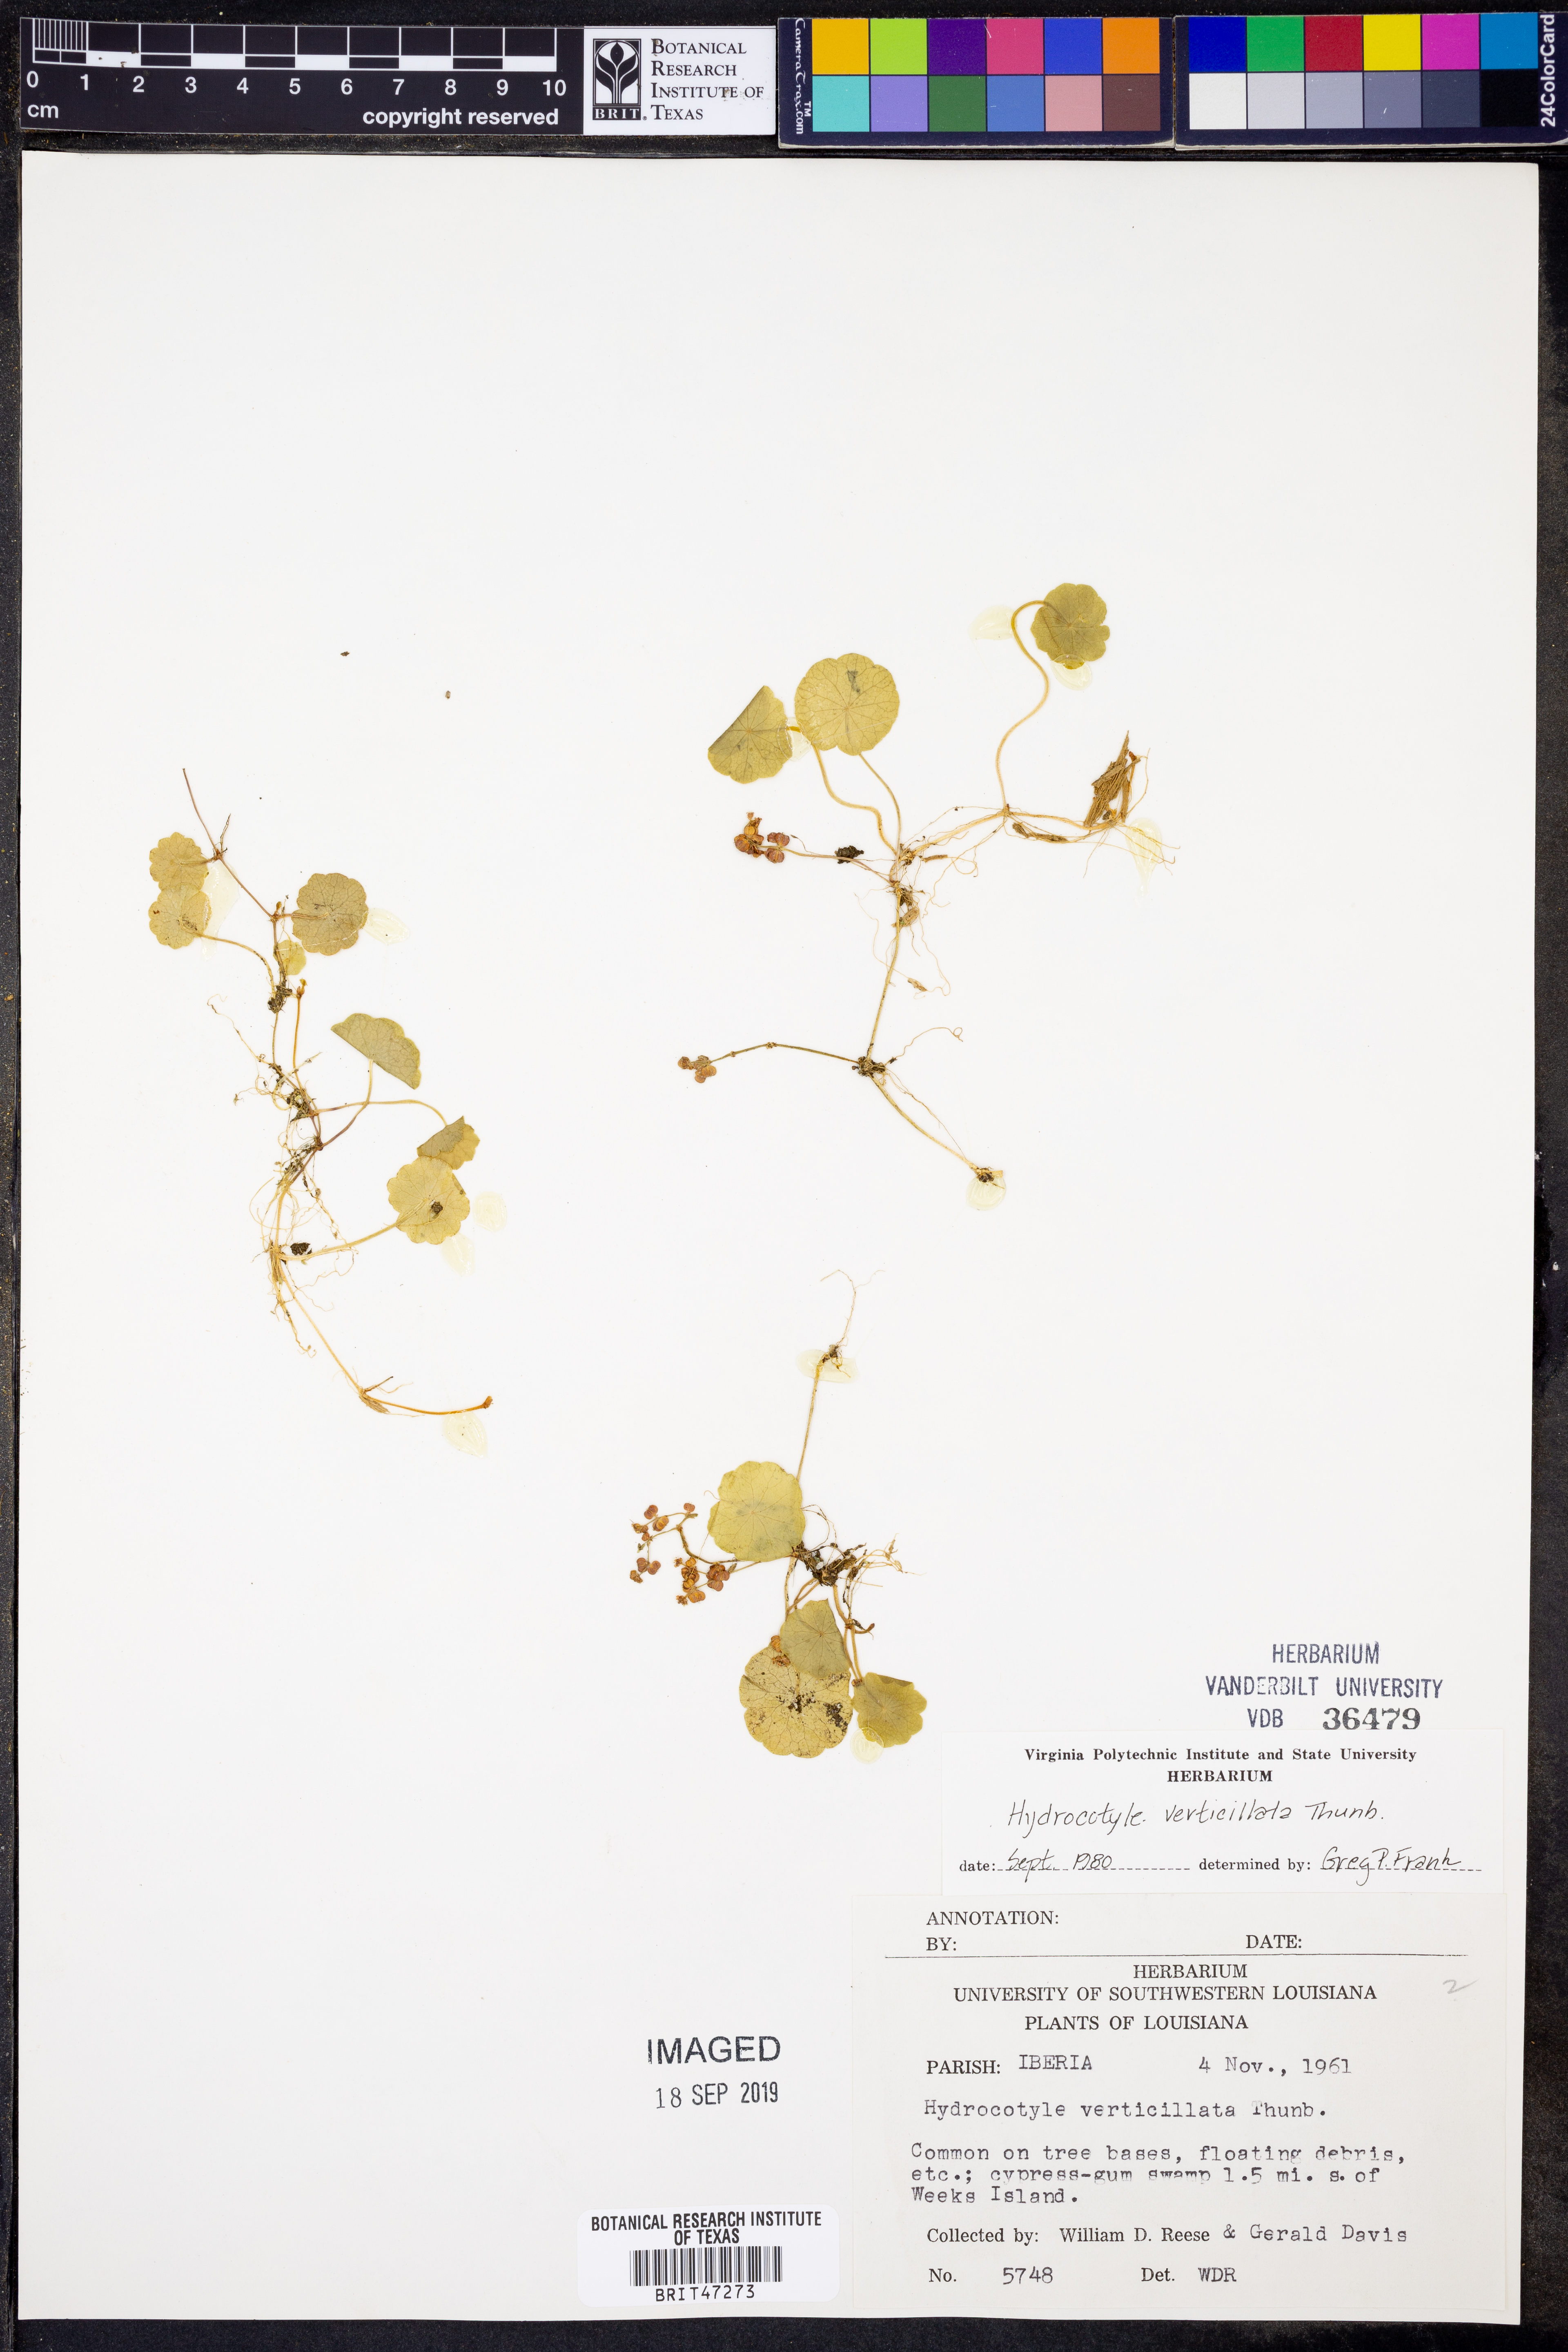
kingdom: Plantae
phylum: Tracheophyta
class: Magnoliopsida
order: Apiales
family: Araliaceae
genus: Hydrocotyle
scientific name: Hydrocotyle verticillata
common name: Whorled marshpennywort
